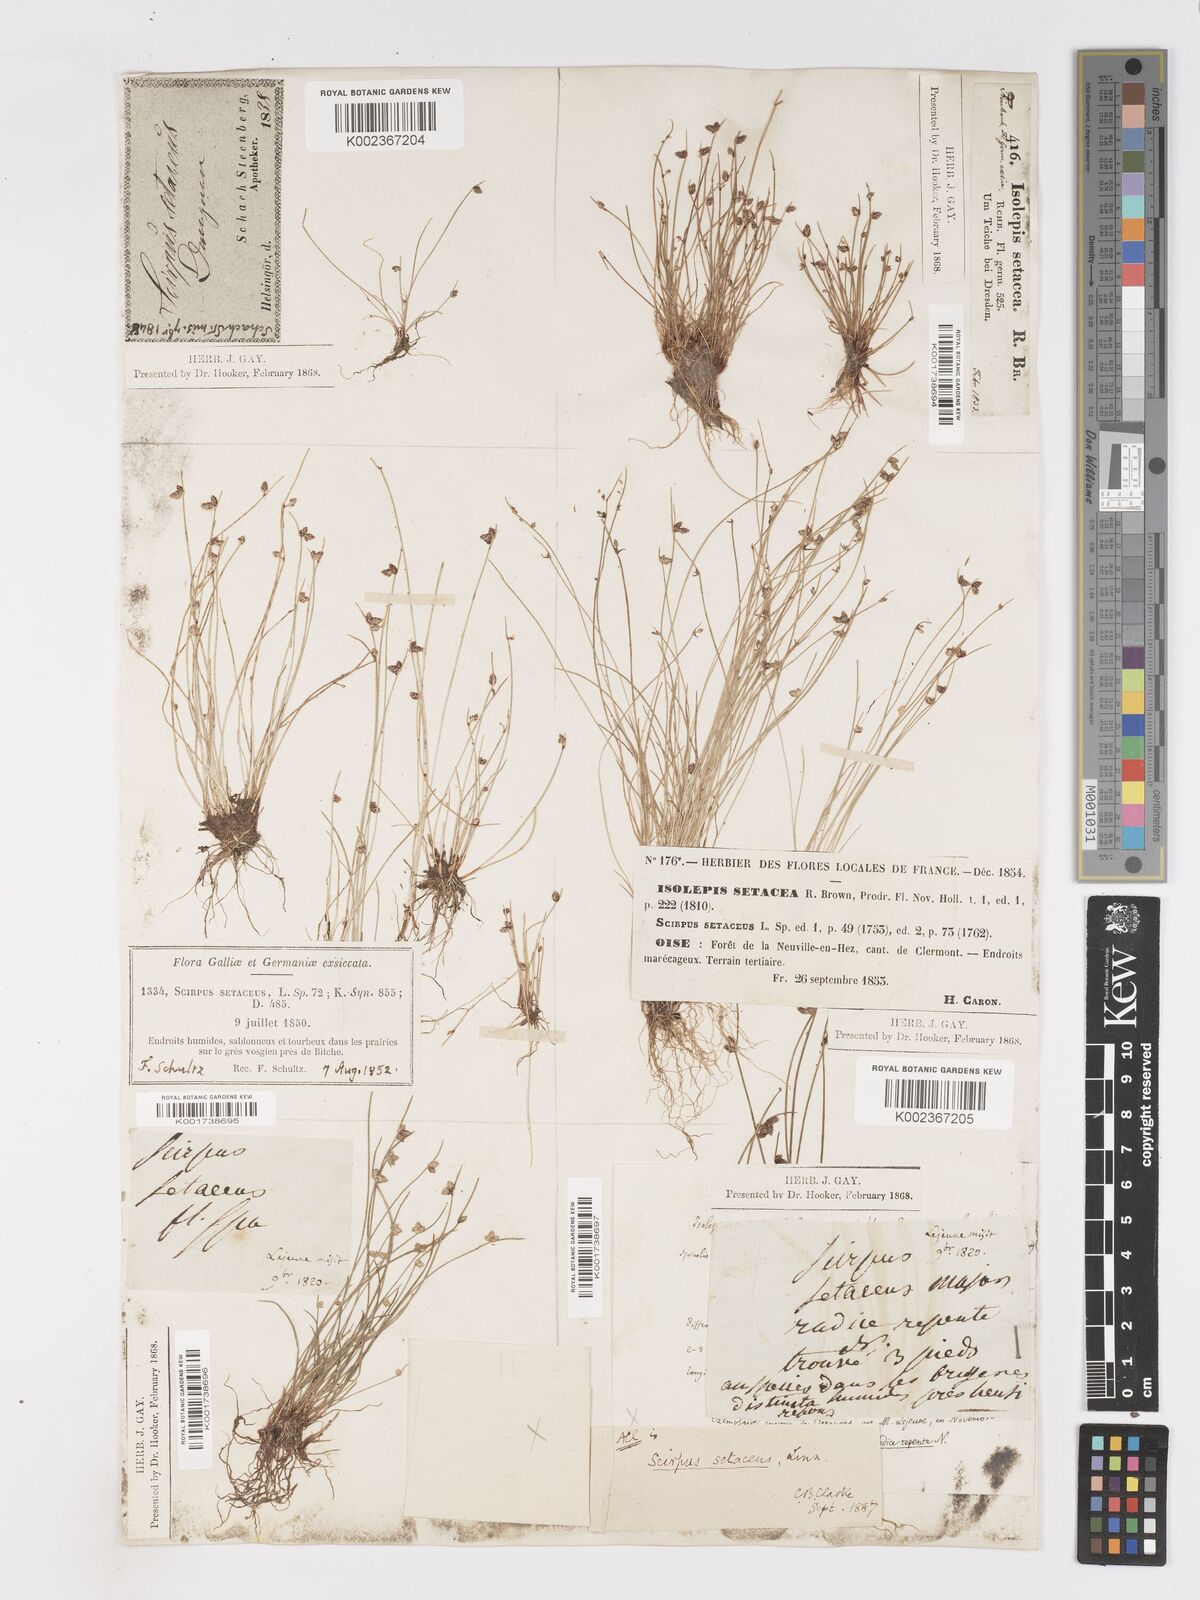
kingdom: Plantae
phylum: Tracheophyta
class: Liliopsida
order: Poales
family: Cyperaceae
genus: Isolepis
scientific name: Isolepis setacea
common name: Bristle club-rush
